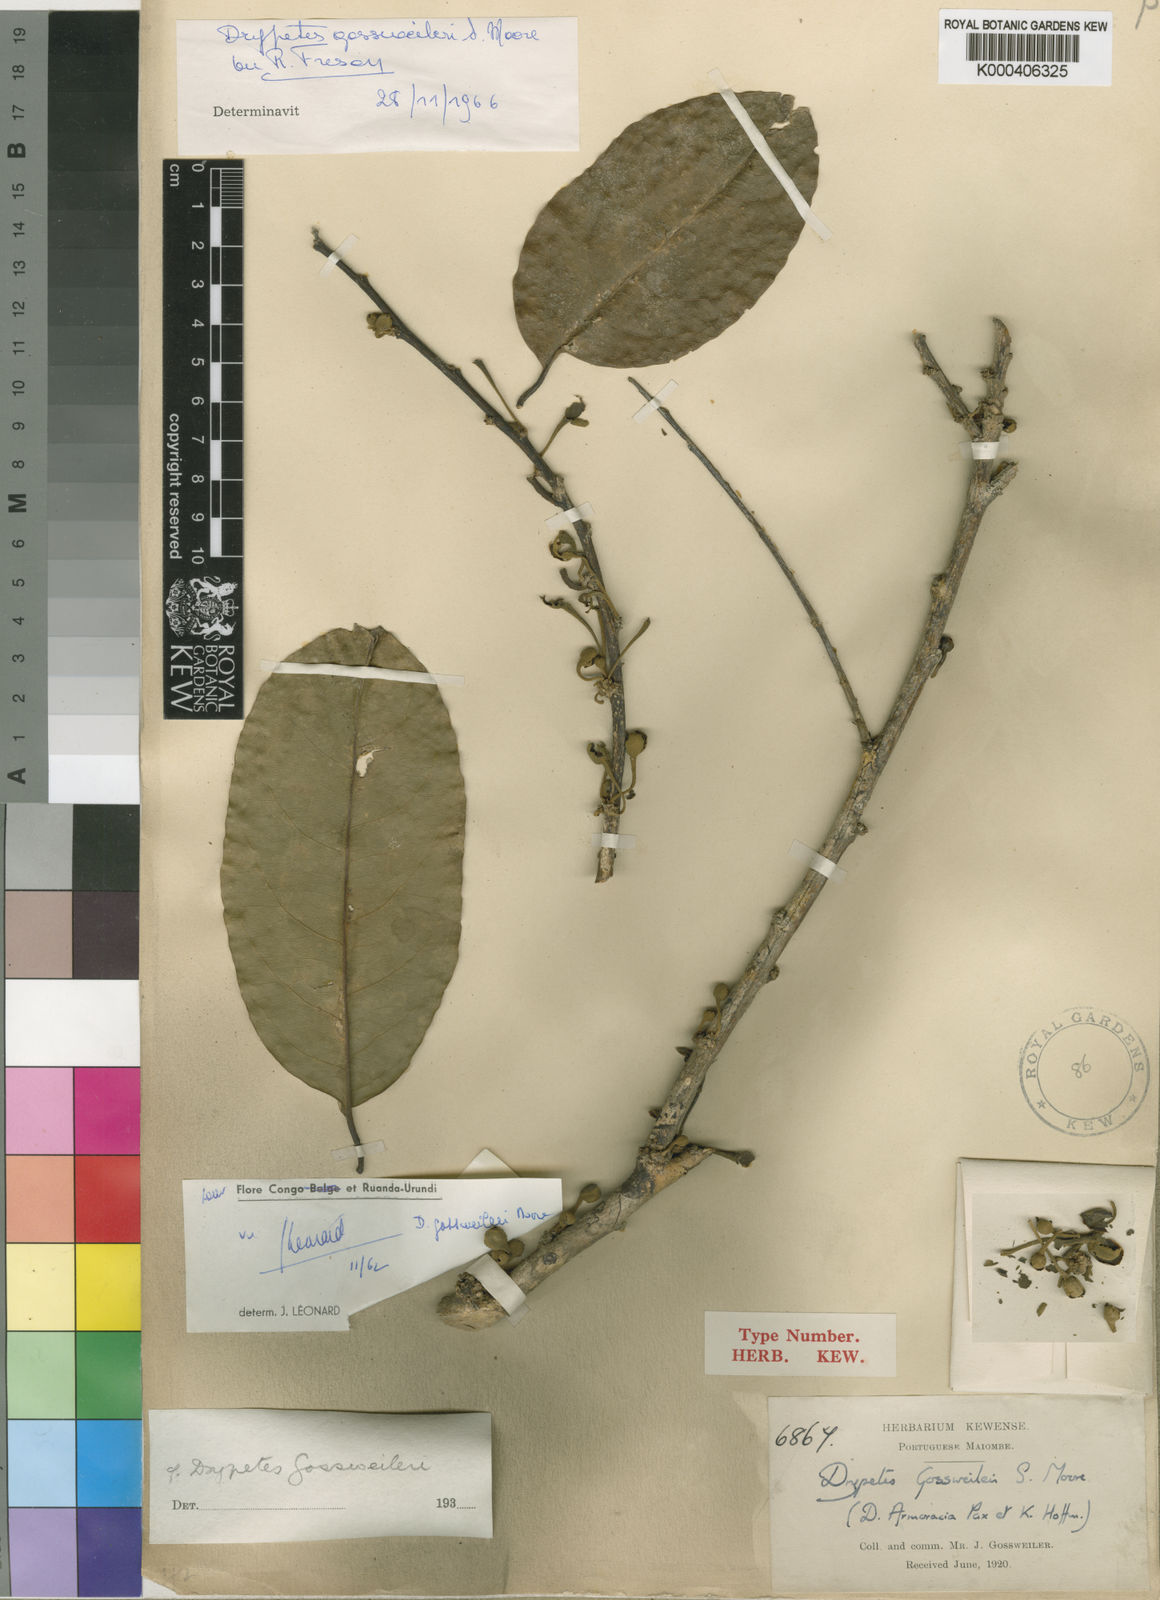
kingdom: Plantae
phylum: Tracheophyta
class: Magnoliopsida
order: Malpighiales
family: Putranjivaceae
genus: Drypetes
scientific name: Drypetes gossweileri
